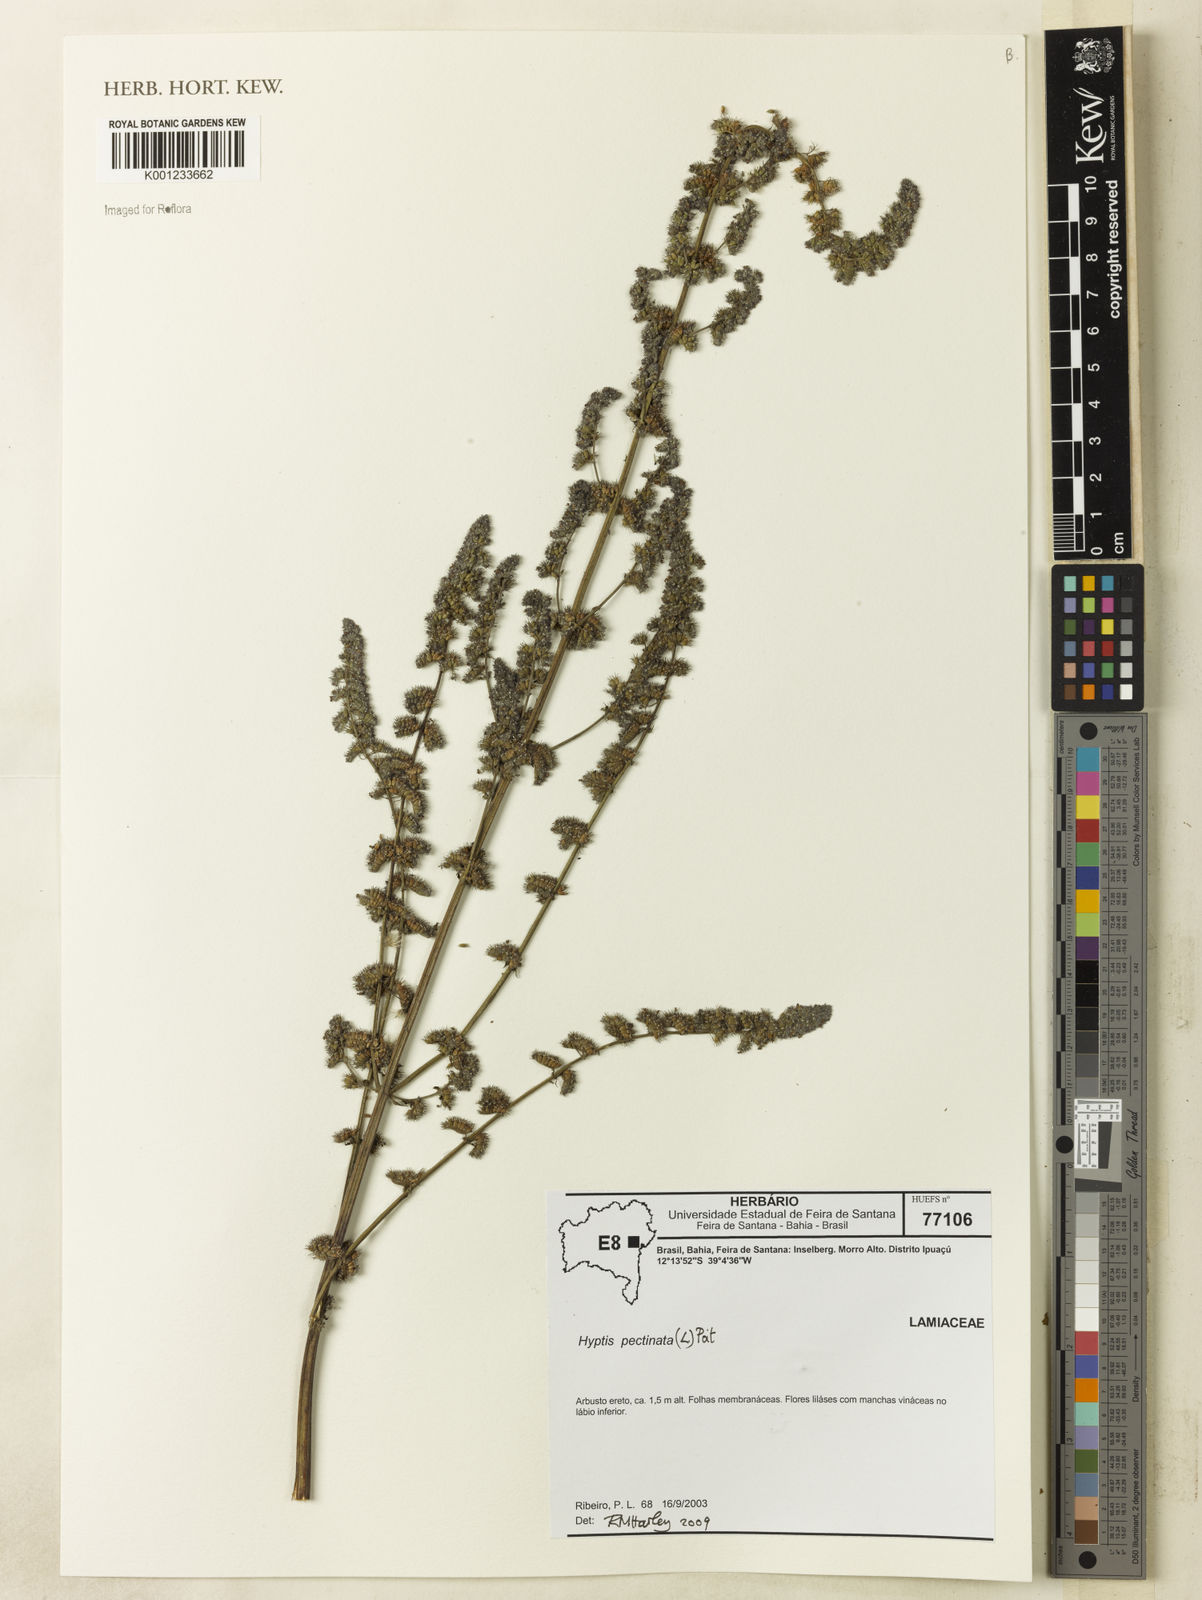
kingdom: Plantae
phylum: Tracheophyta
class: Magnoliopsida
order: Lamiales
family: Lamiaceae
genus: Mesosphaerum
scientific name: Mesosphaerum pectinatum
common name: Comb hyptis
